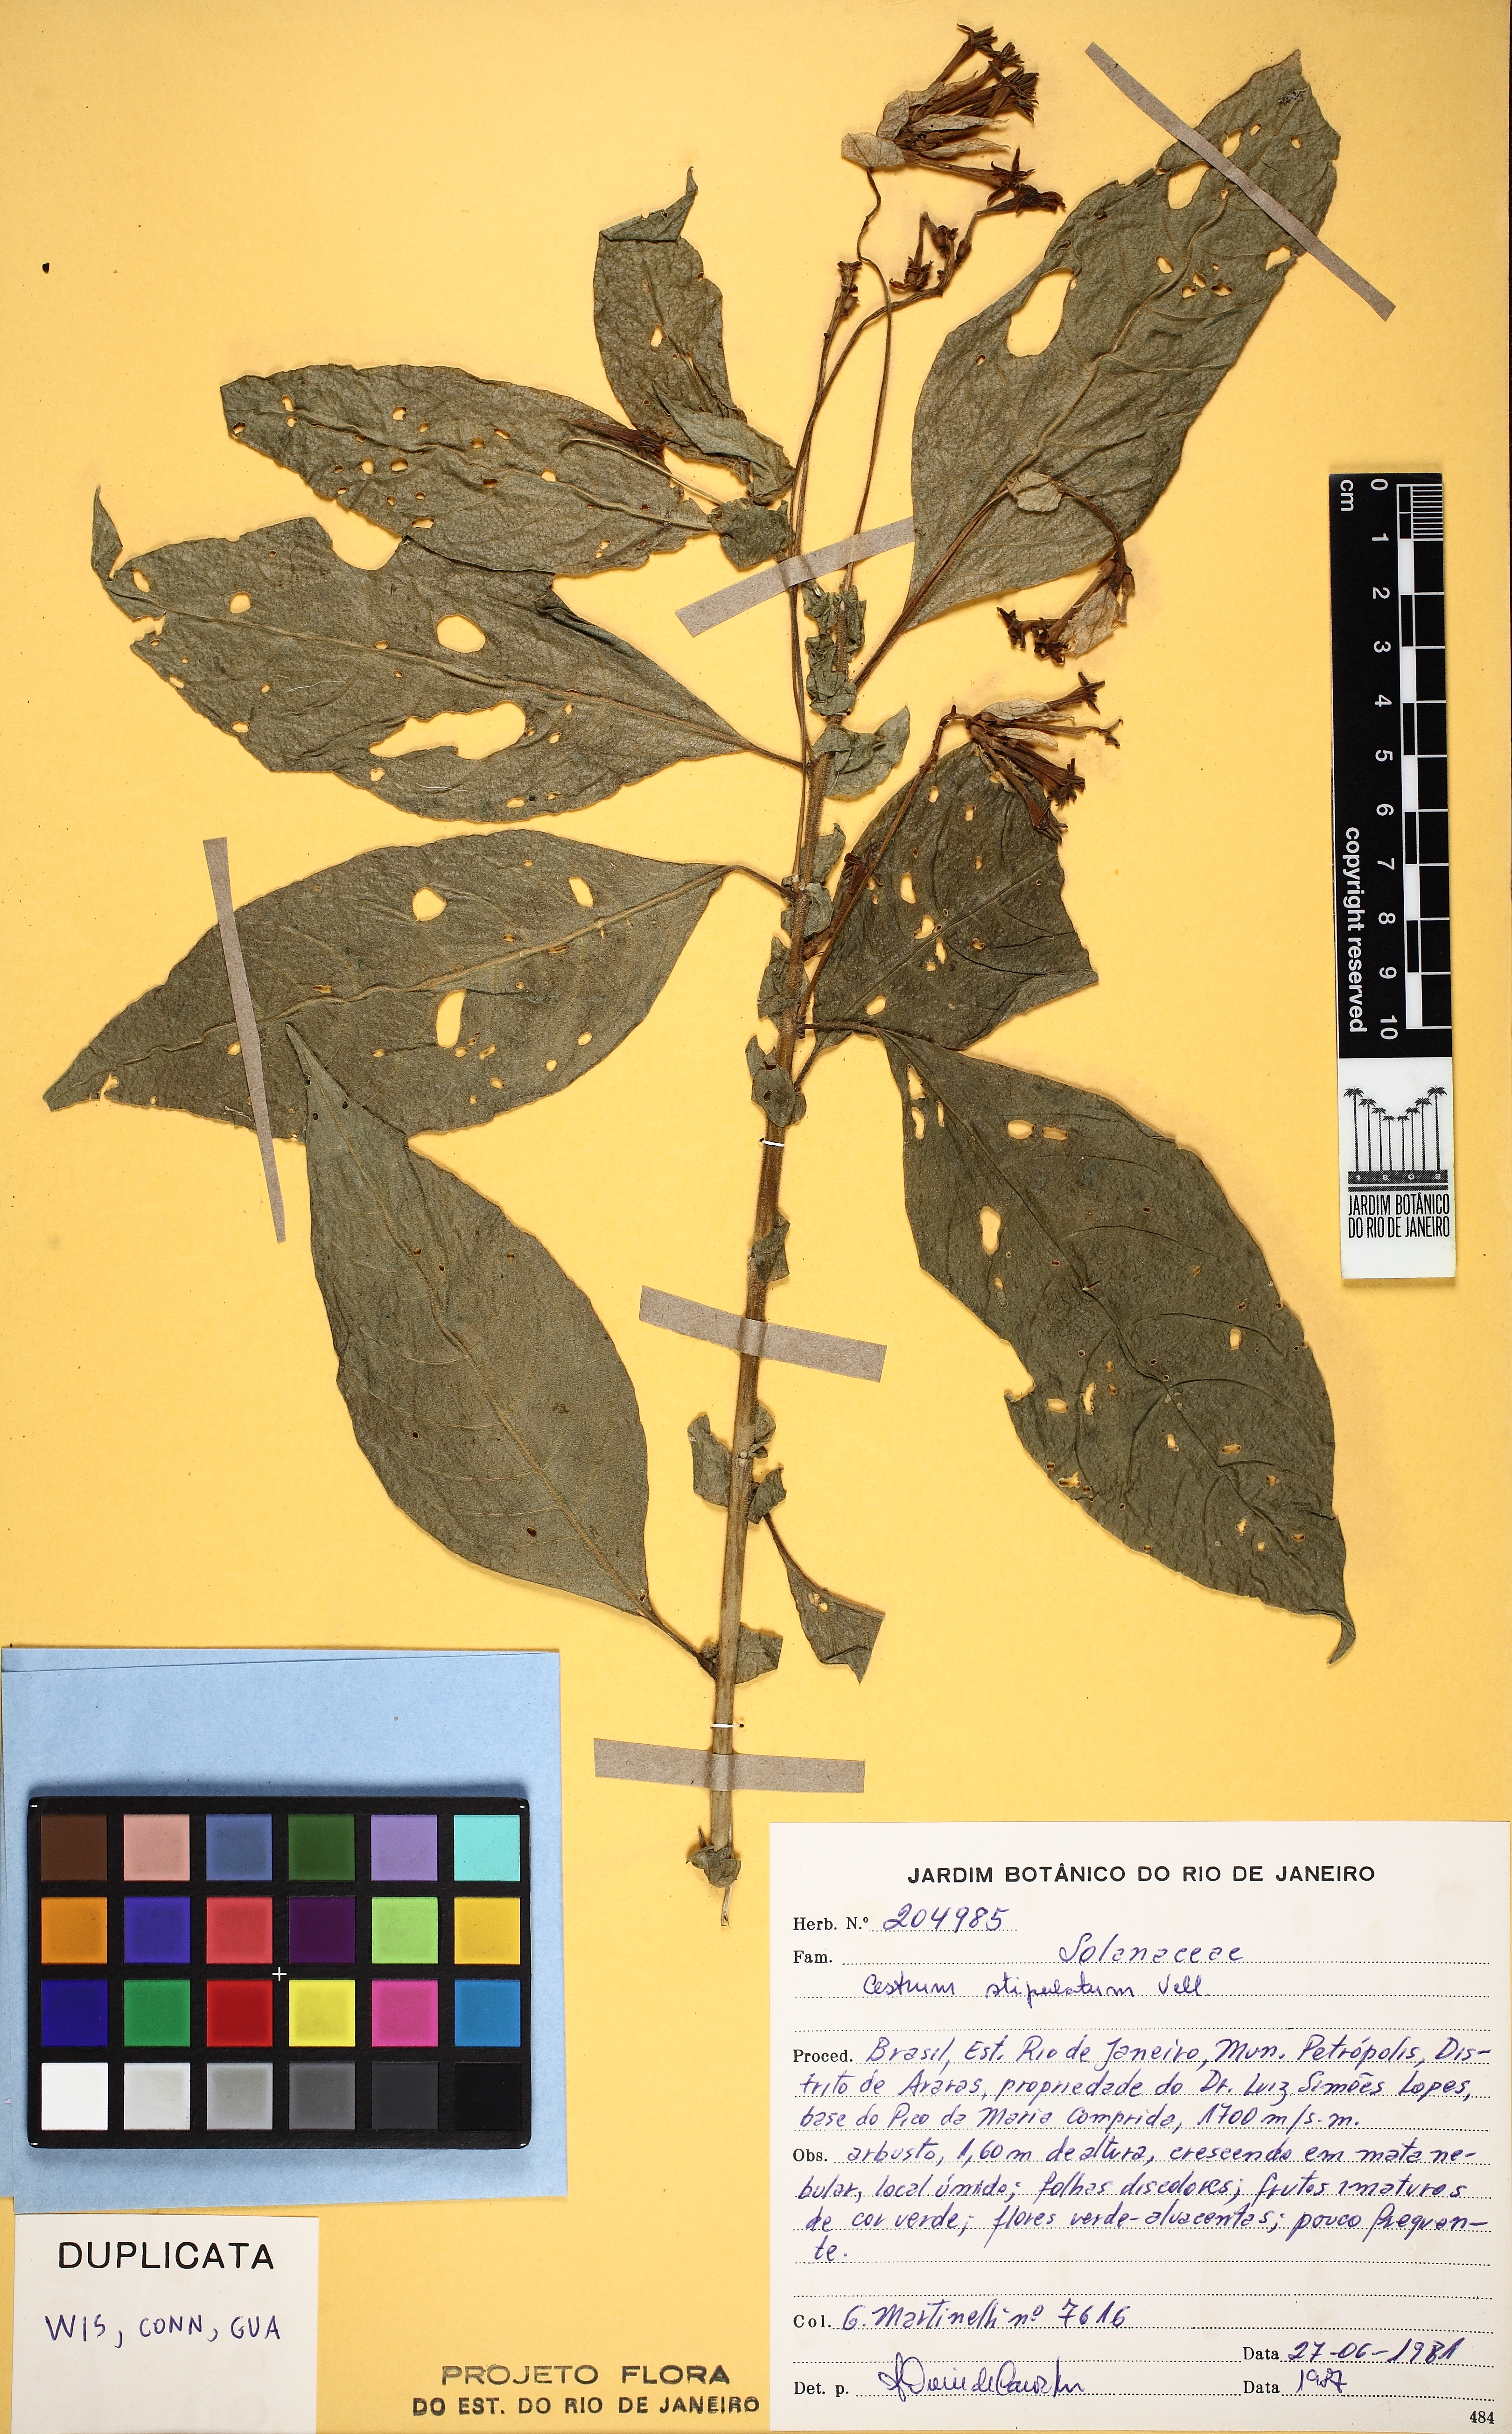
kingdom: Plantae
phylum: Tracheophyta
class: Magnoliopsida
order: Solanales
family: Solanaceae
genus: Cestrum
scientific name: Cestrum bracteatum
